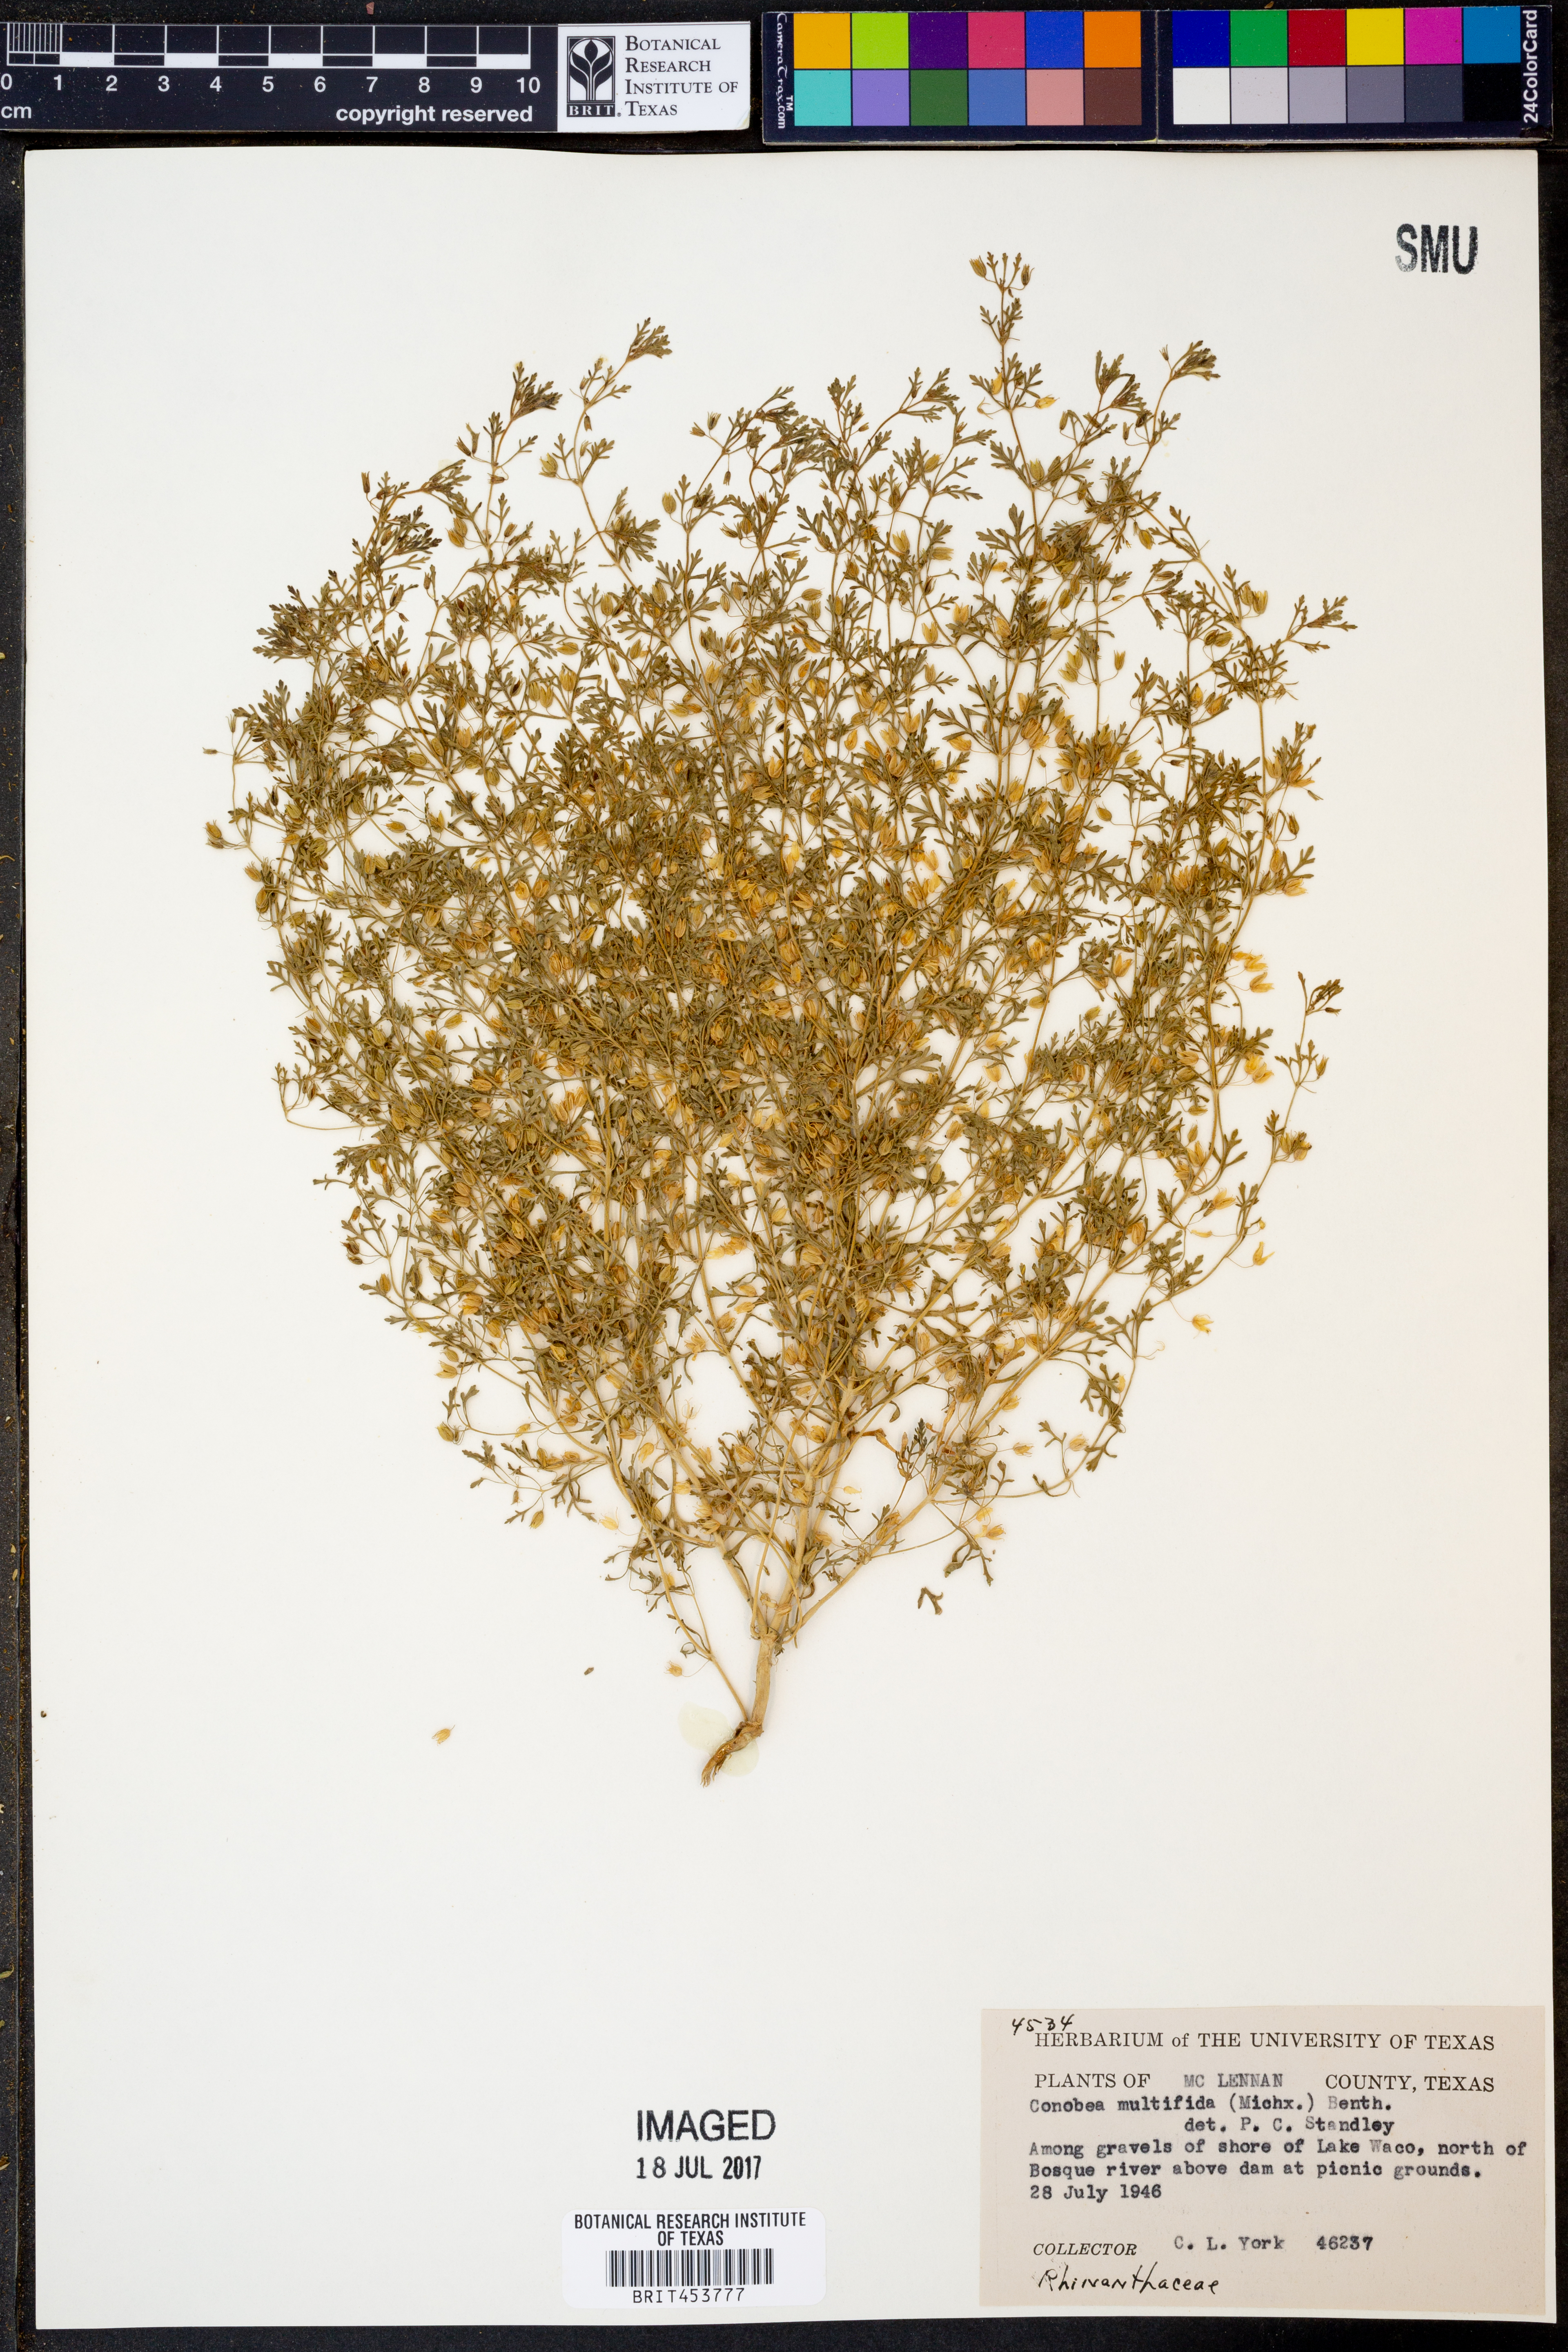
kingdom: Plantae
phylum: Tracheophyta
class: Magnoliopsida
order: Lamiales
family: Plantaginaceae
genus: Leucospora
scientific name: Leucospora multifida
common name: Narrow-leaf paleseed
